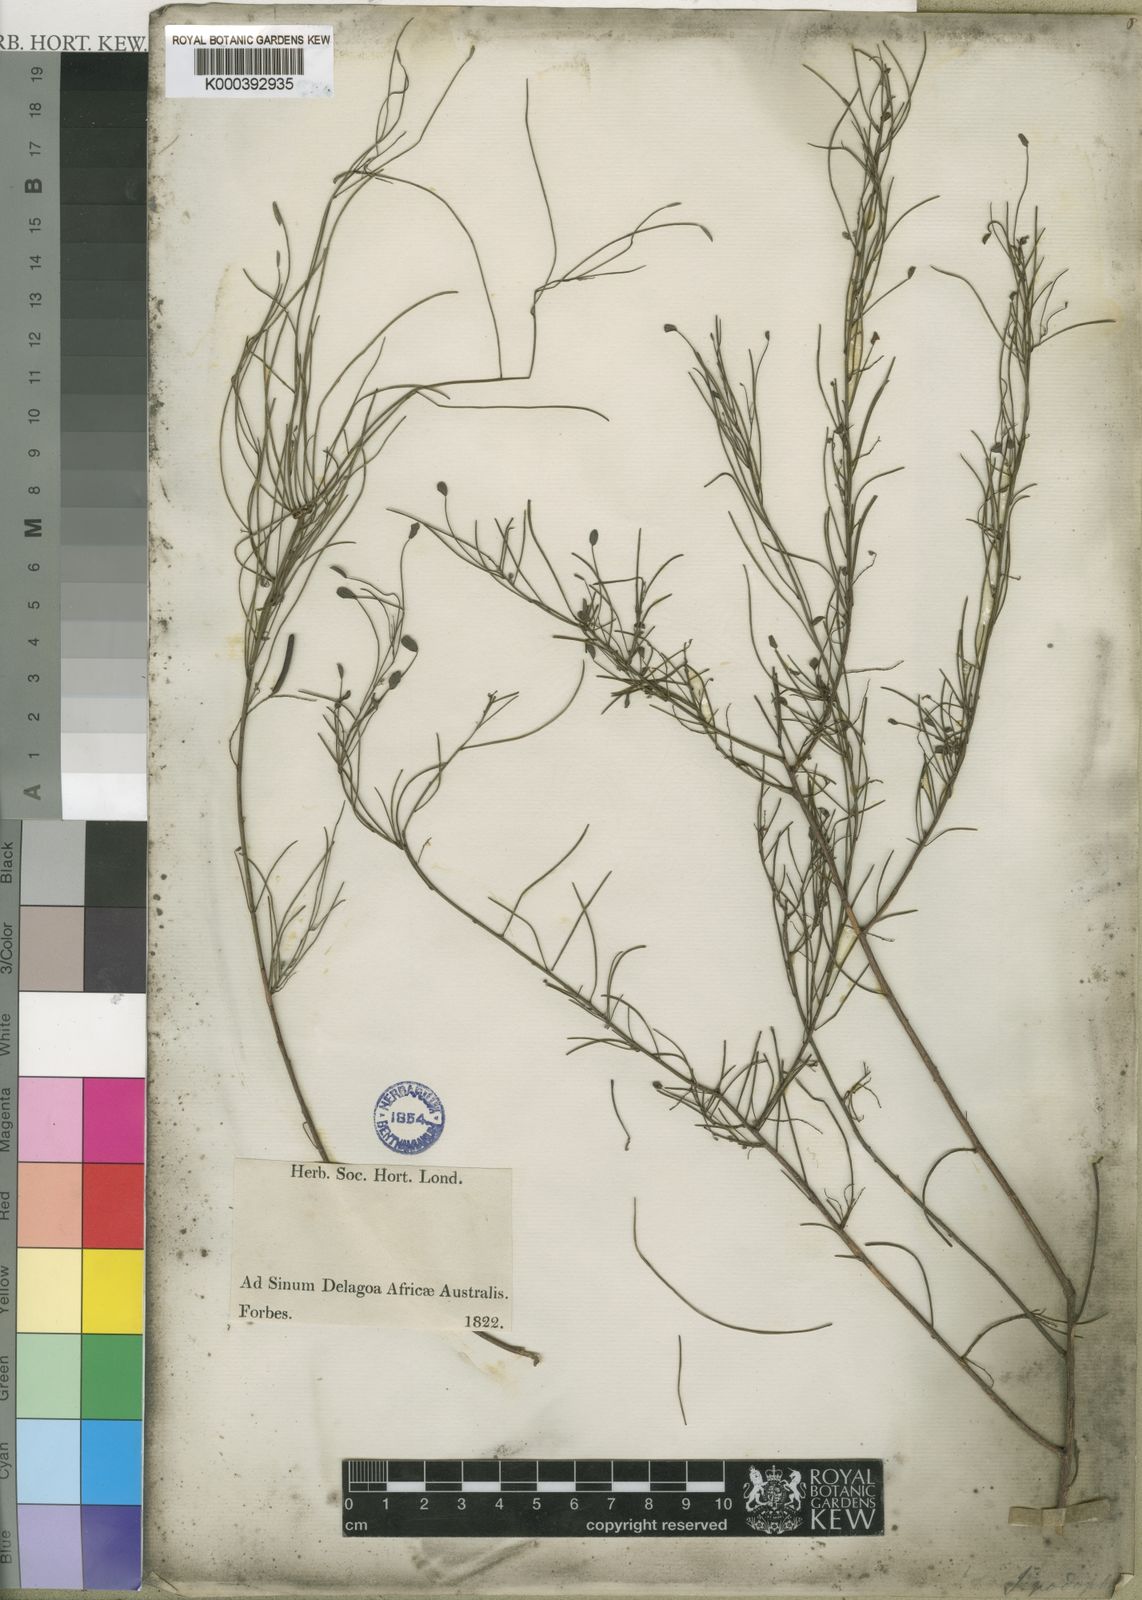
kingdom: Plantae
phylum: Tracheophyta
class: Magnoliopsida
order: Fabales
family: Fabaceae
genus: Indigofera
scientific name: Indigofera podophylla
